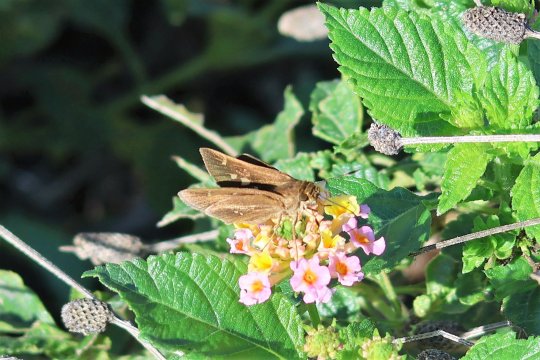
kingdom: Animalia
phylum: Arthropoda
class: Insecta
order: Lepidoptera
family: Hesperiidae
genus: Decinea
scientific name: Decinea percosius
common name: Double-dotted Skipper
